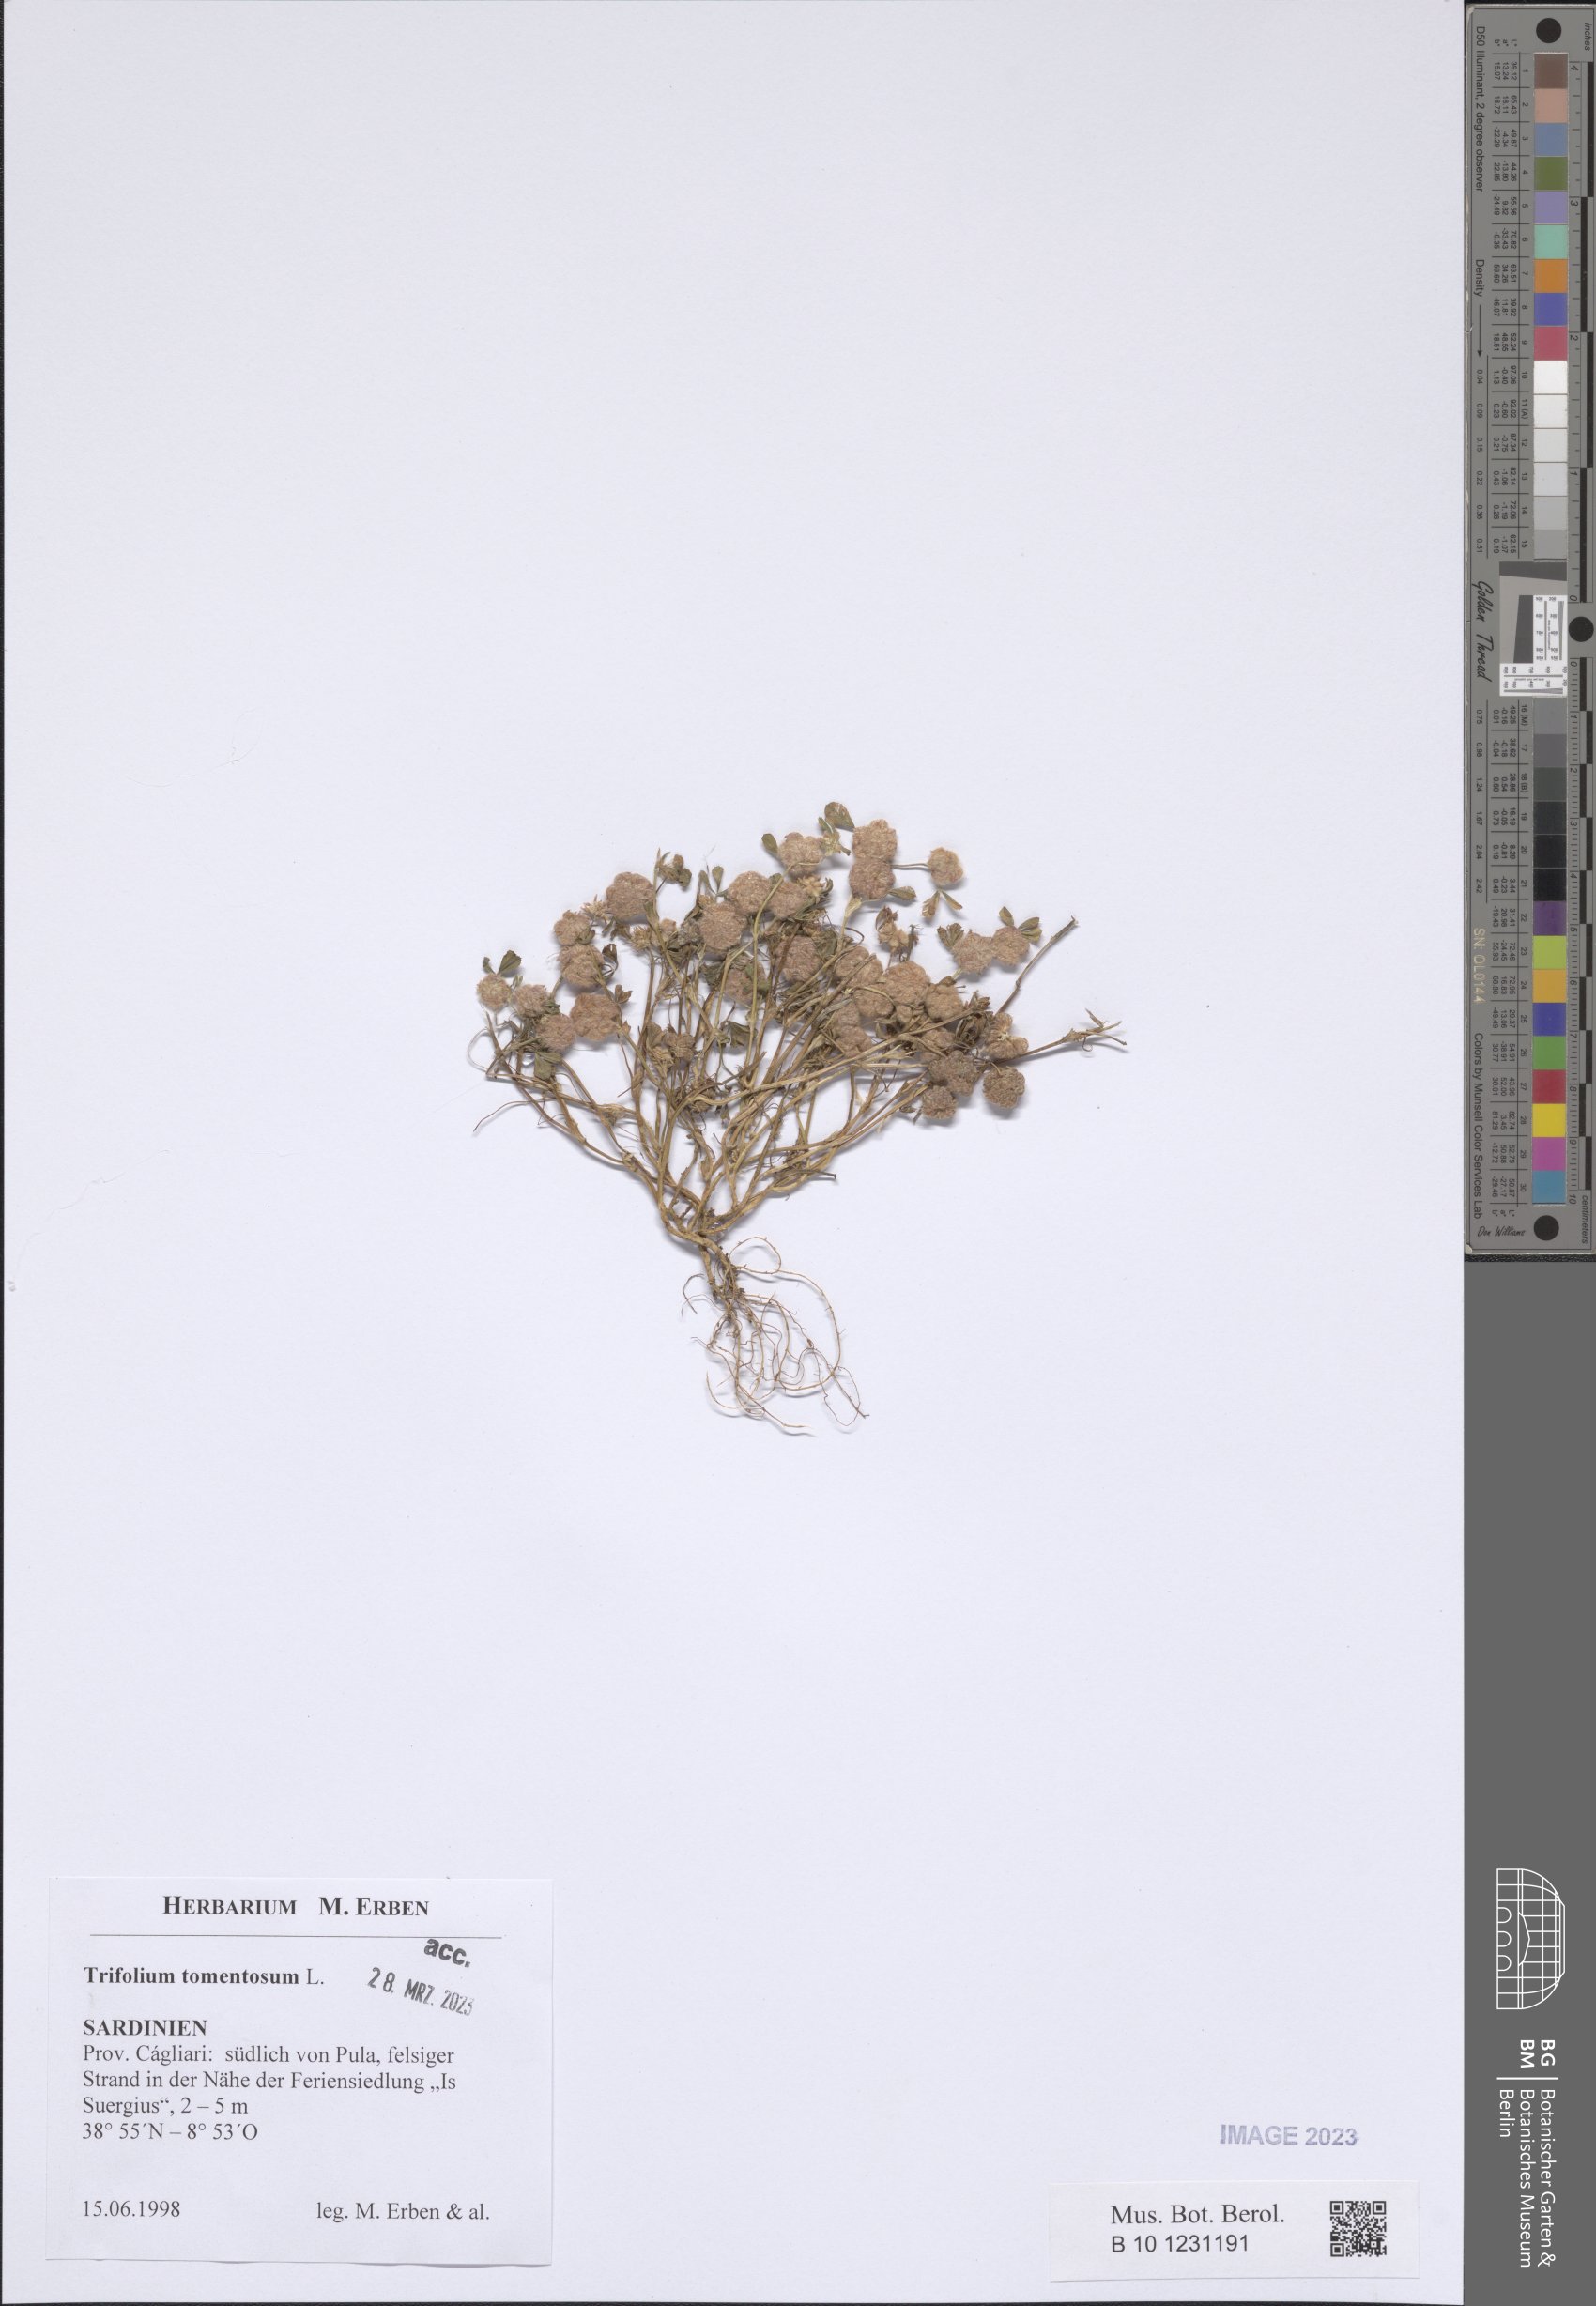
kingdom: Plantae
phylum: Tracheophyta
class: Magnoliopsida
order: Fabales
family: Fabaceae
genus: Trifolium
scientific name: Trifolium tomentosum
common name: Woolly clover
